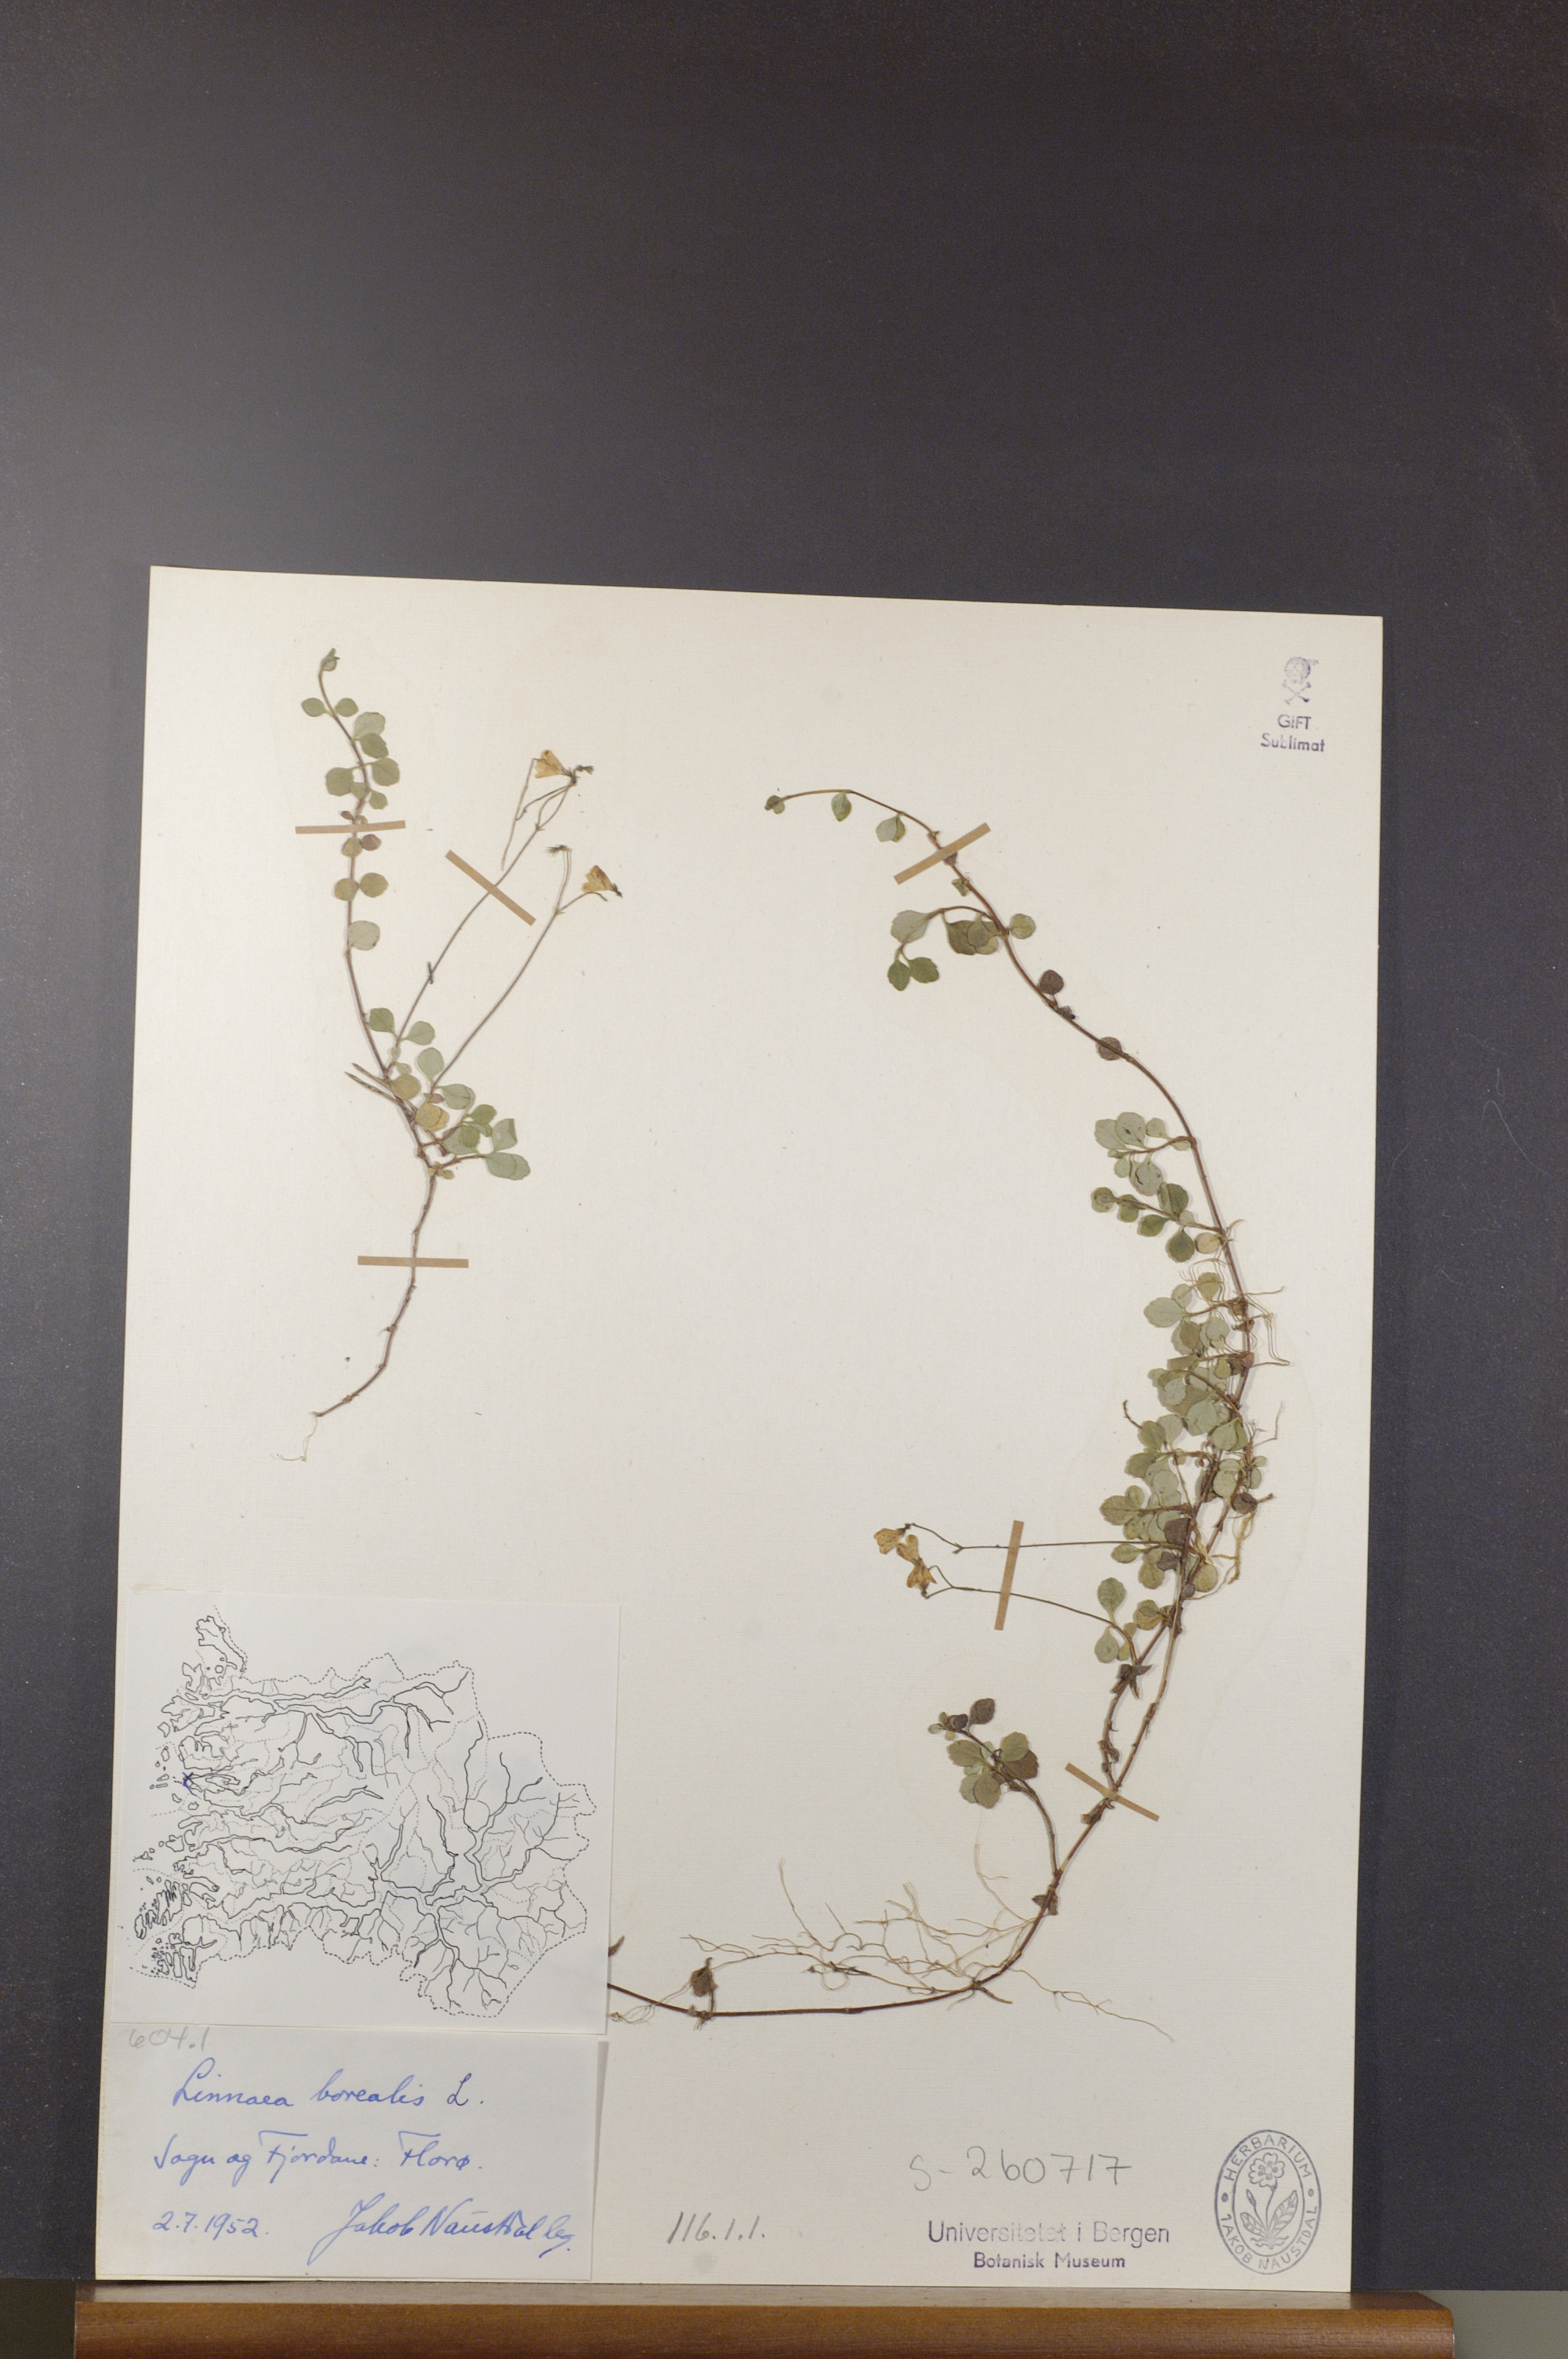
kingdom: Plantae
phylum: Tracheophyta
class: Magnoliopsida
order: Dipsacales
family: Caprifoliaceae
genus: Linnaea
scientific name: Linnaea borealis
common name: Twinflower
